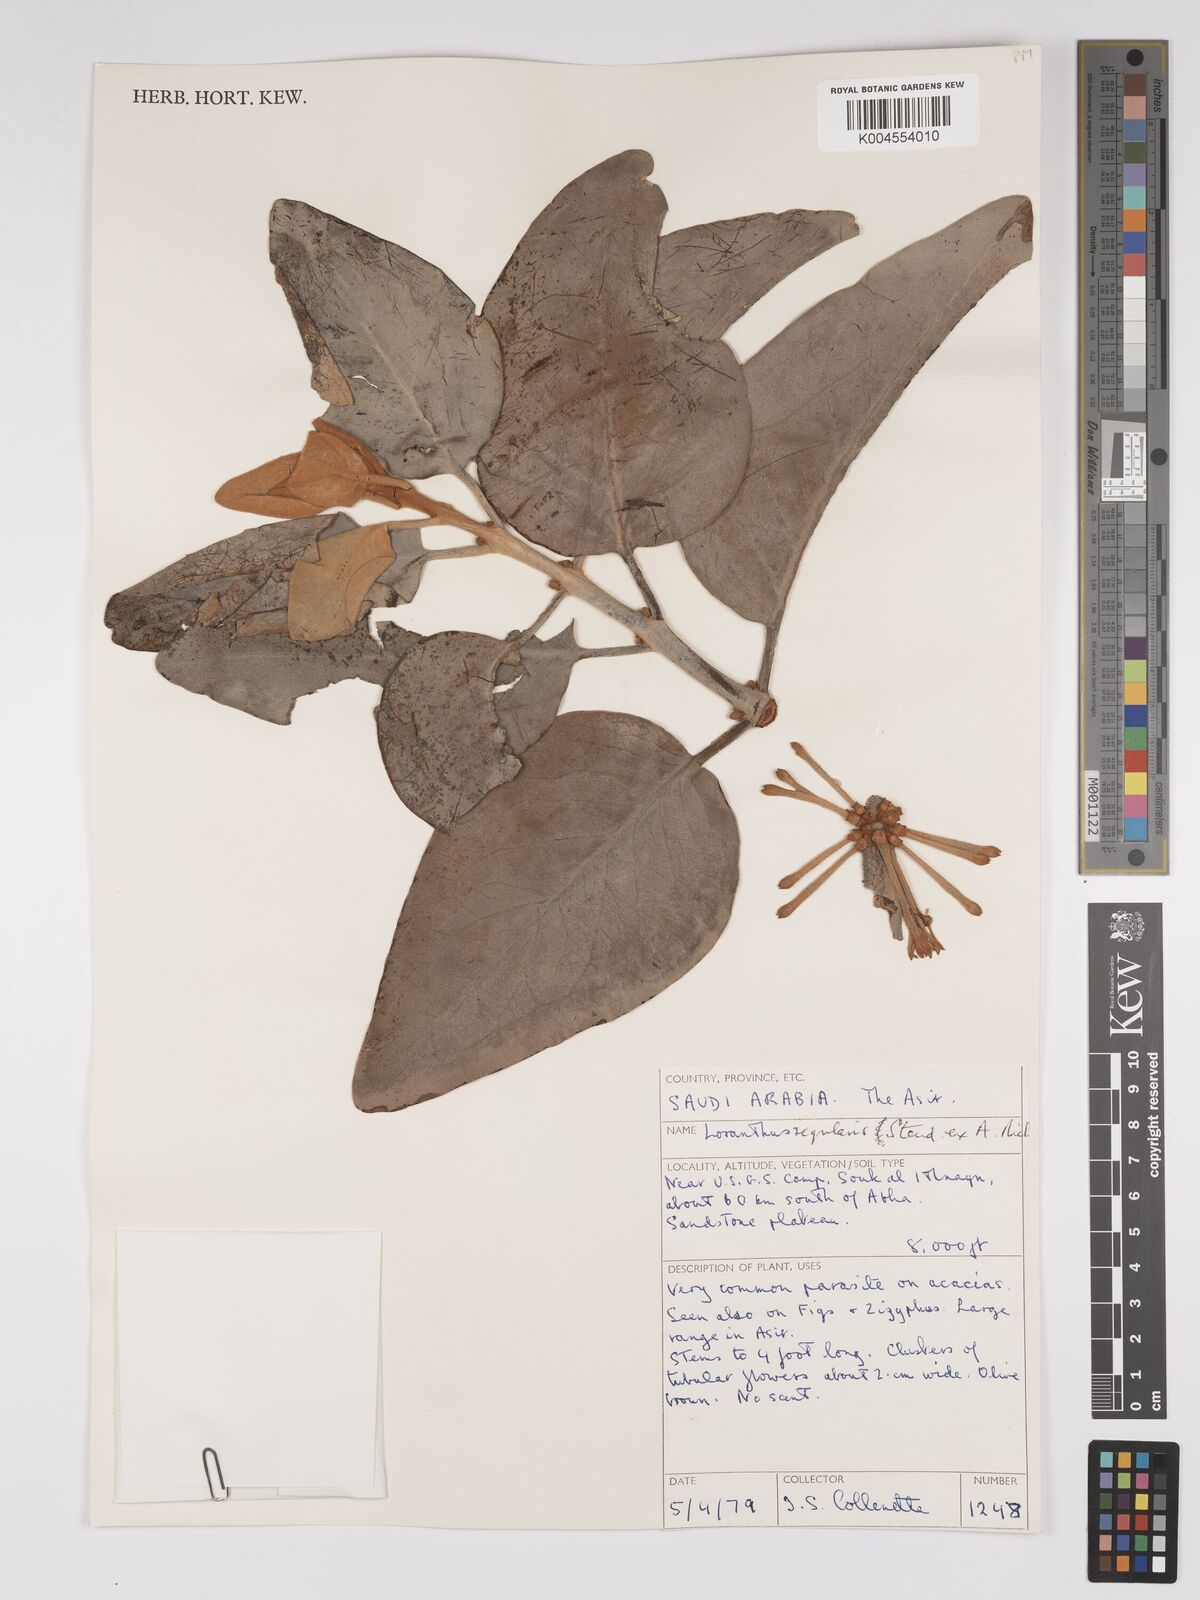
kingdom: Plantae
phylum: Tracheophyta
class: Magnoliopsida
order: Santalales
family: Loranthaceae
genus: Phragmanthera
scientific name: Phragmanthera regularis
